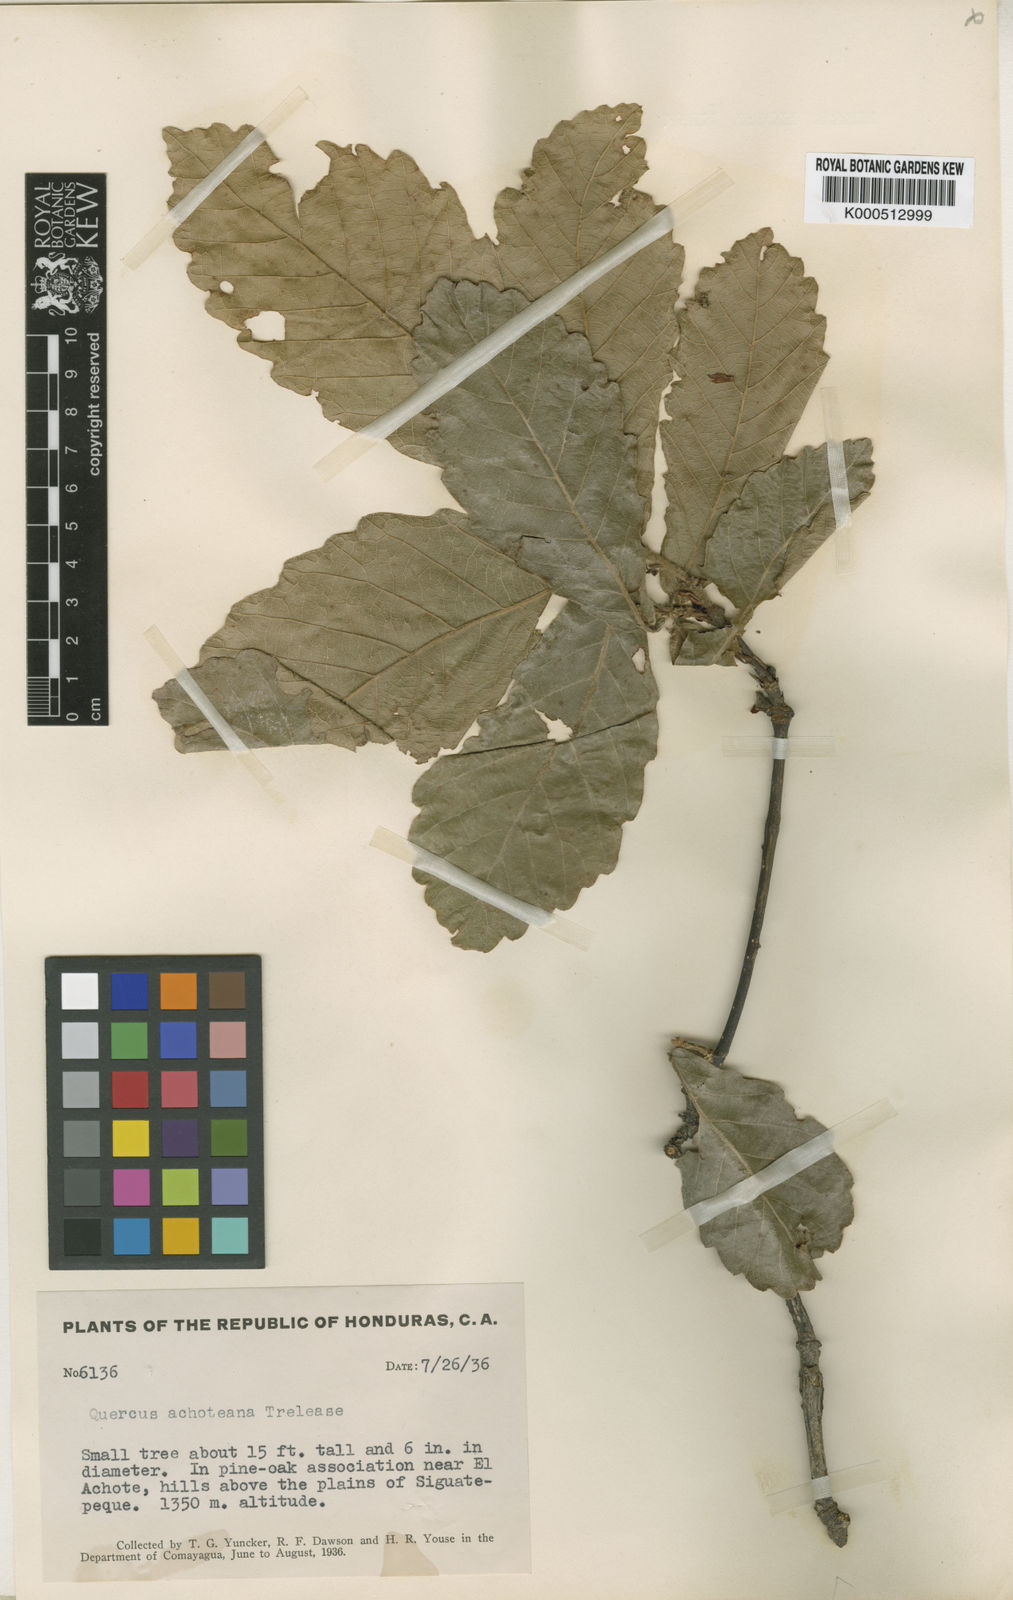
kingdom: Plantae
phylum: Tracheophyta
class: Magnoliopsida
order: Fagales
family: Fagaceae
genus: Quercus
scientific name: Quercus peduncularis
